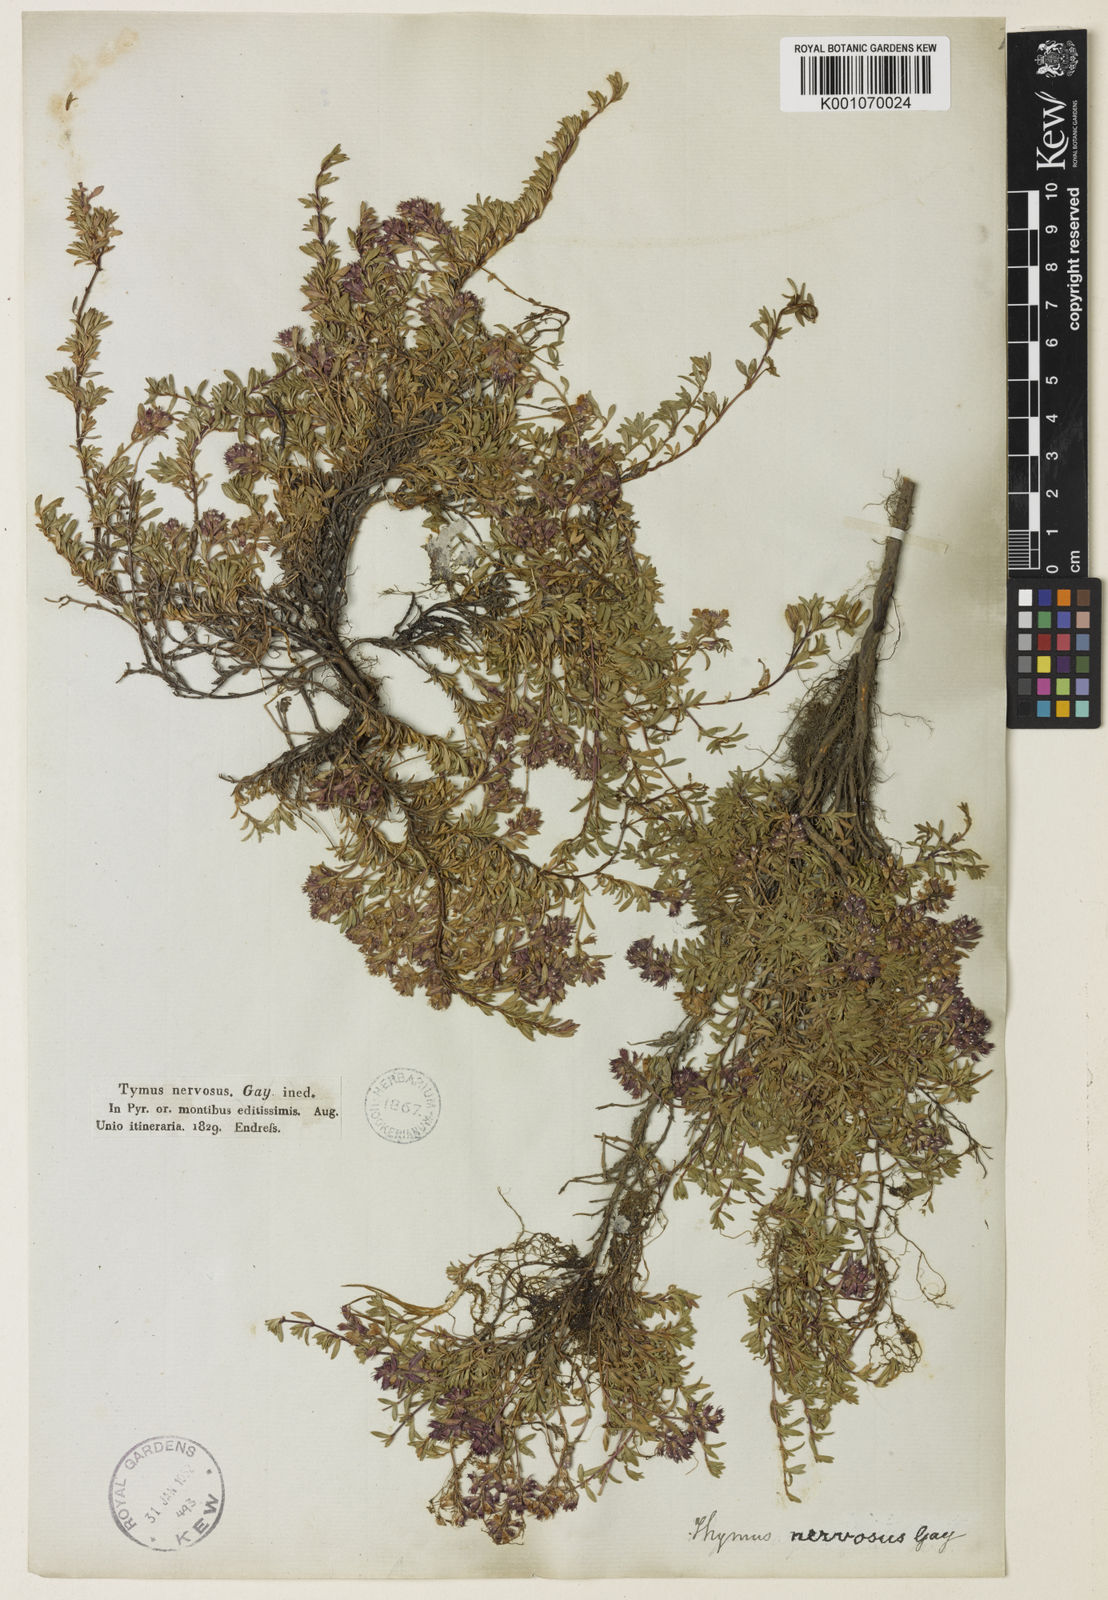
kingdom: Plantae
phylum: Tracheophyta
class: Magnoliopsida
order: Lamiales
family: Lamiaceae
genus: Thymus
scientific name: Thymus nervosus
